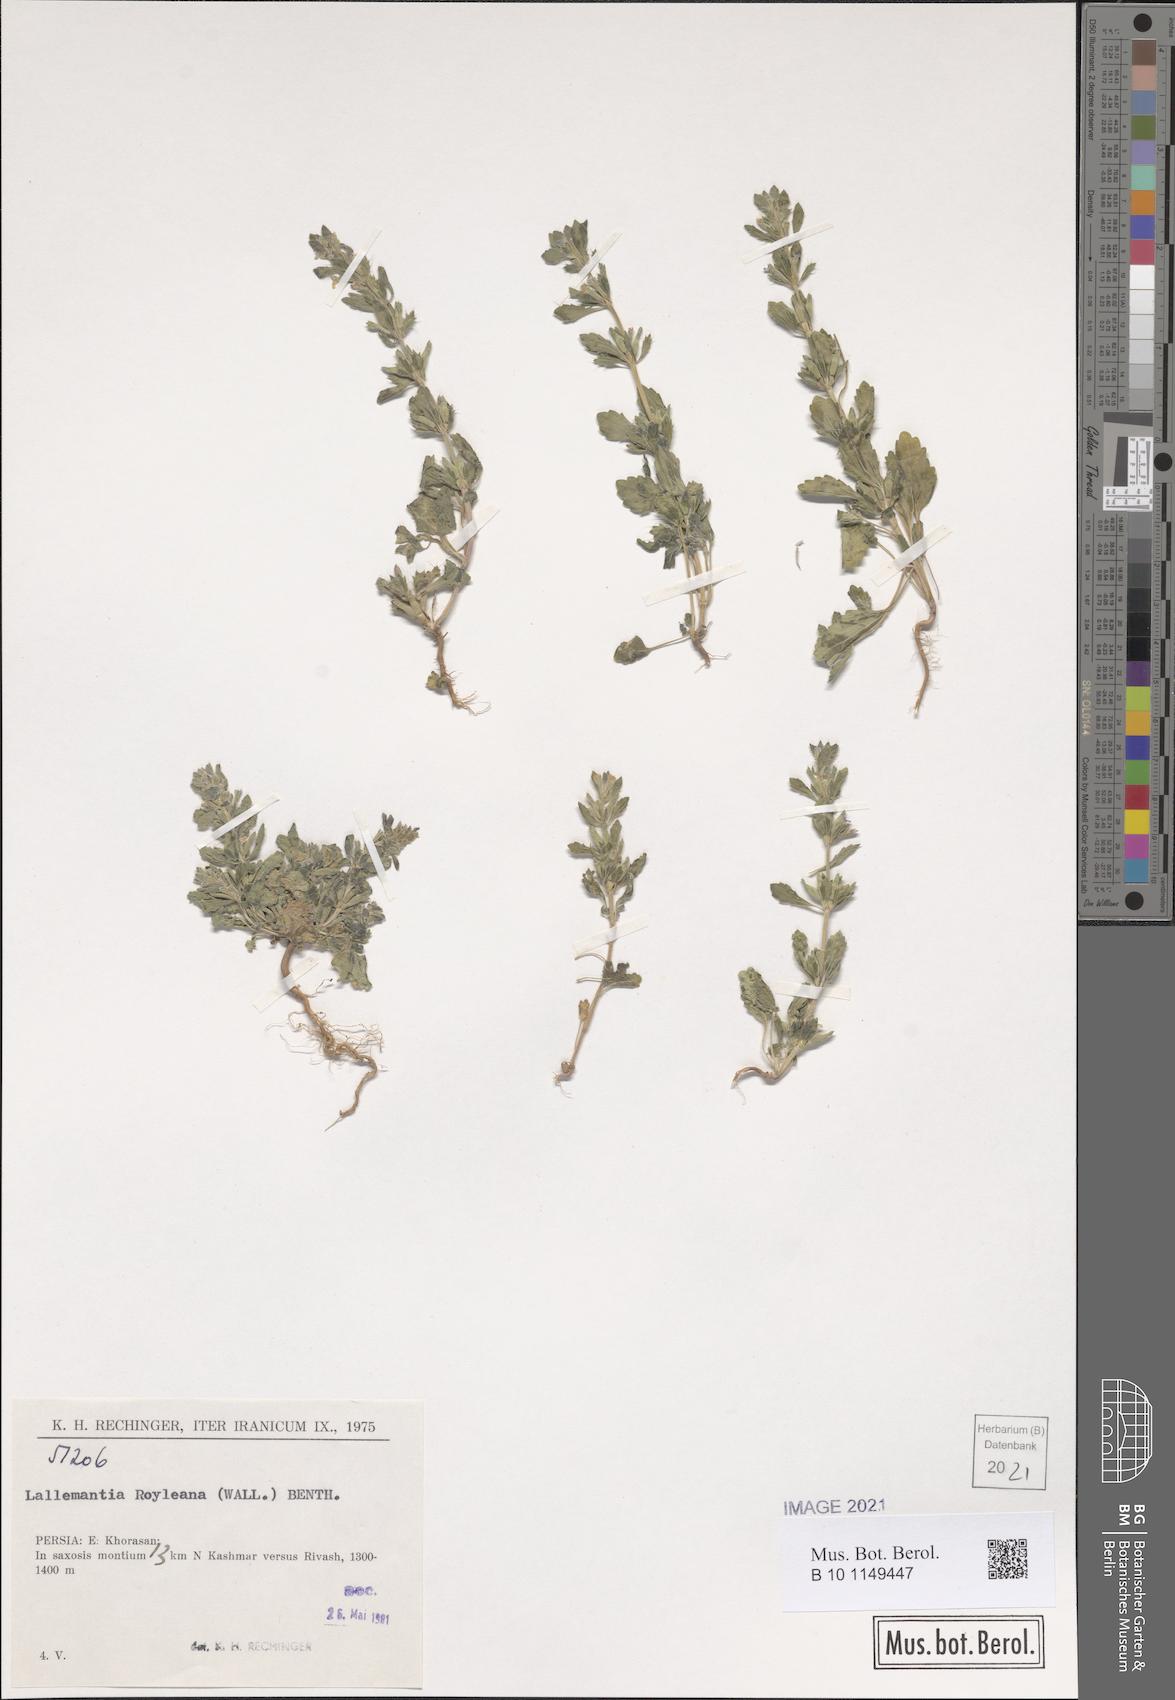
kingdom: Plantae
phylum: Tracheophyta
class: Magnoliopsida
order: Lamiales
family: Lamiaceae
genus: Lallemantia
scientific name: Lallemantia royleana
